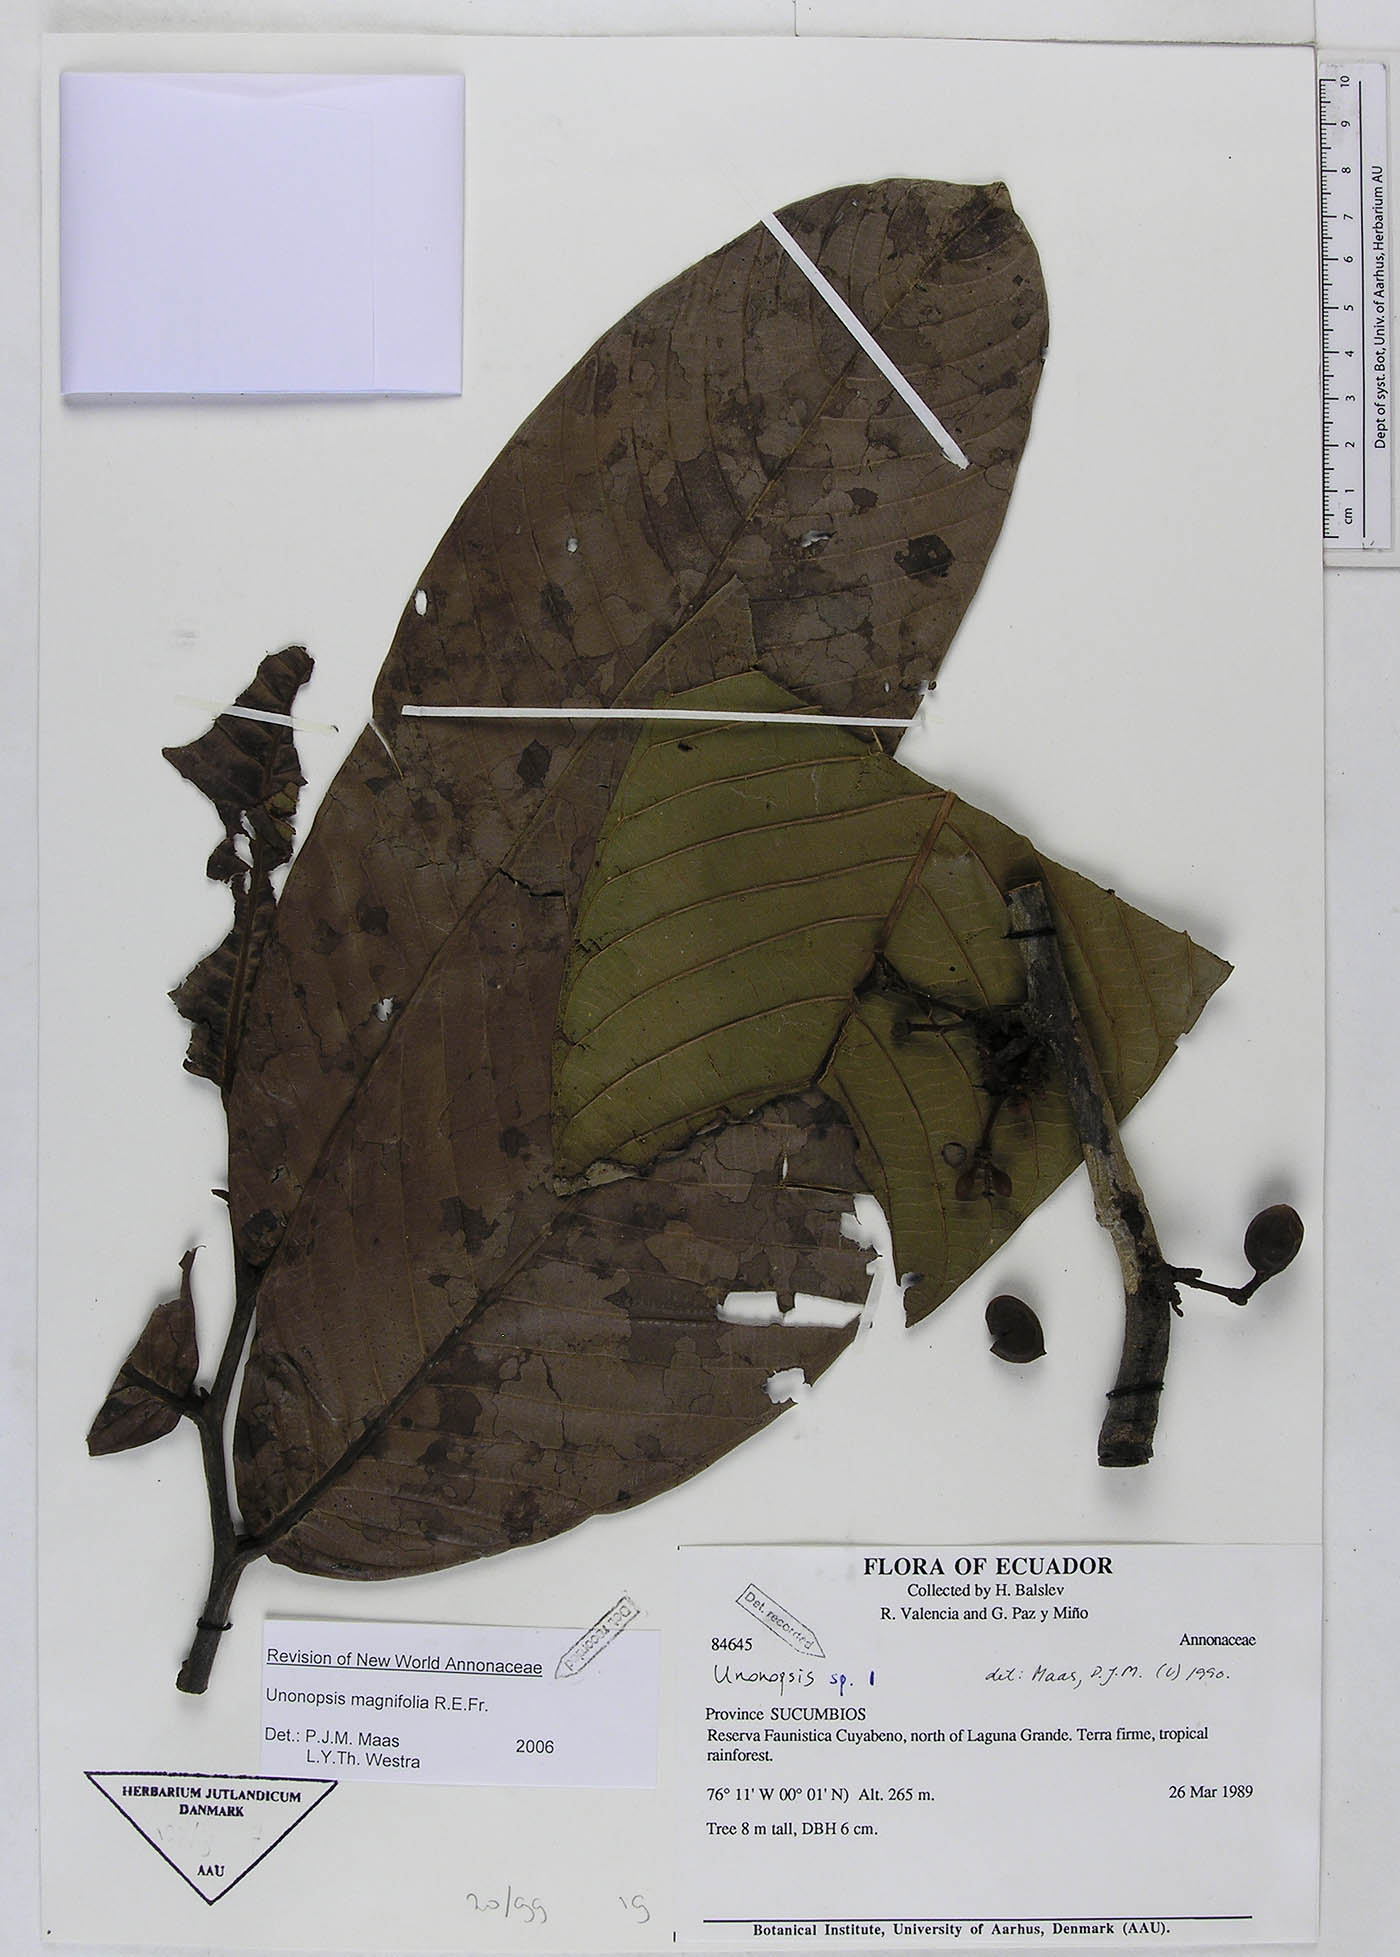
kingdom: Plantae
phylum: Tracheophyta
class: Magnoliopsida
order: Magnoliales
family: Annonaceae
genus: Unonopsis
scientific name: Unonopsis magnifolia
